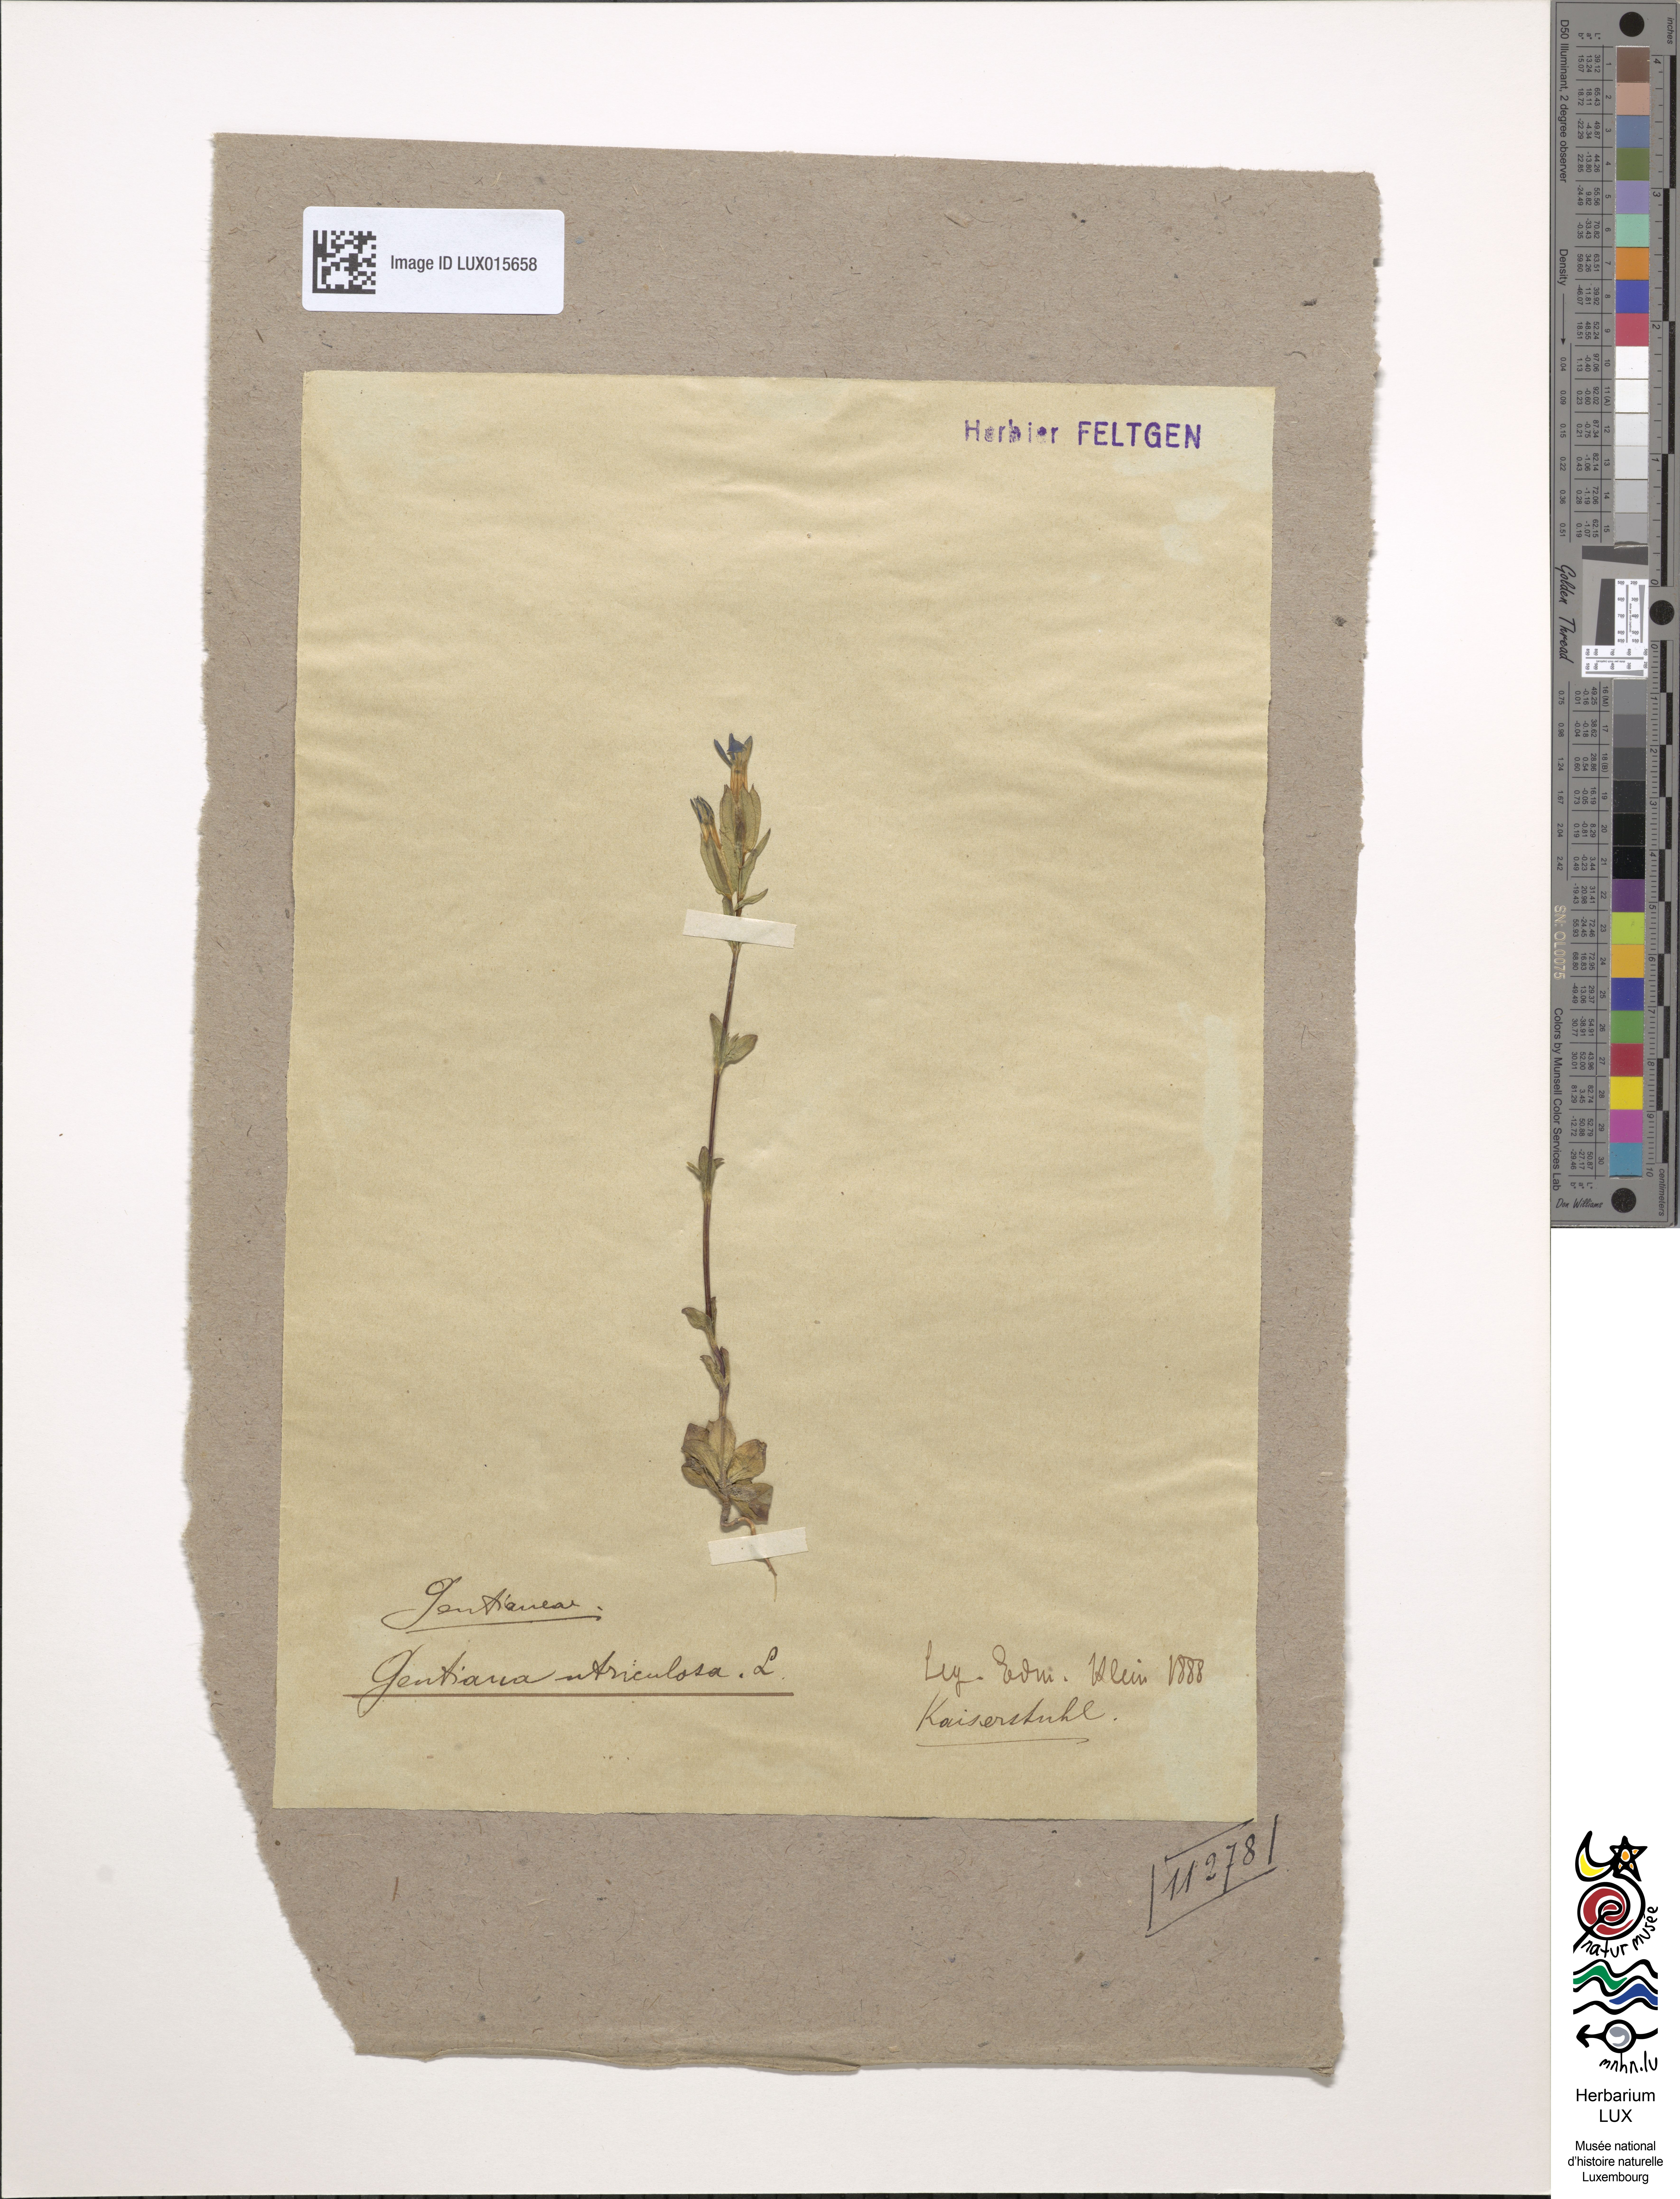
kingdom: Plantae
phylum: Tracheophyta
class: Magnoliopsida
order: Gentianales
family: Gentianaceae
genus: Gentiana
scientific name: Gentiana utriculosa
